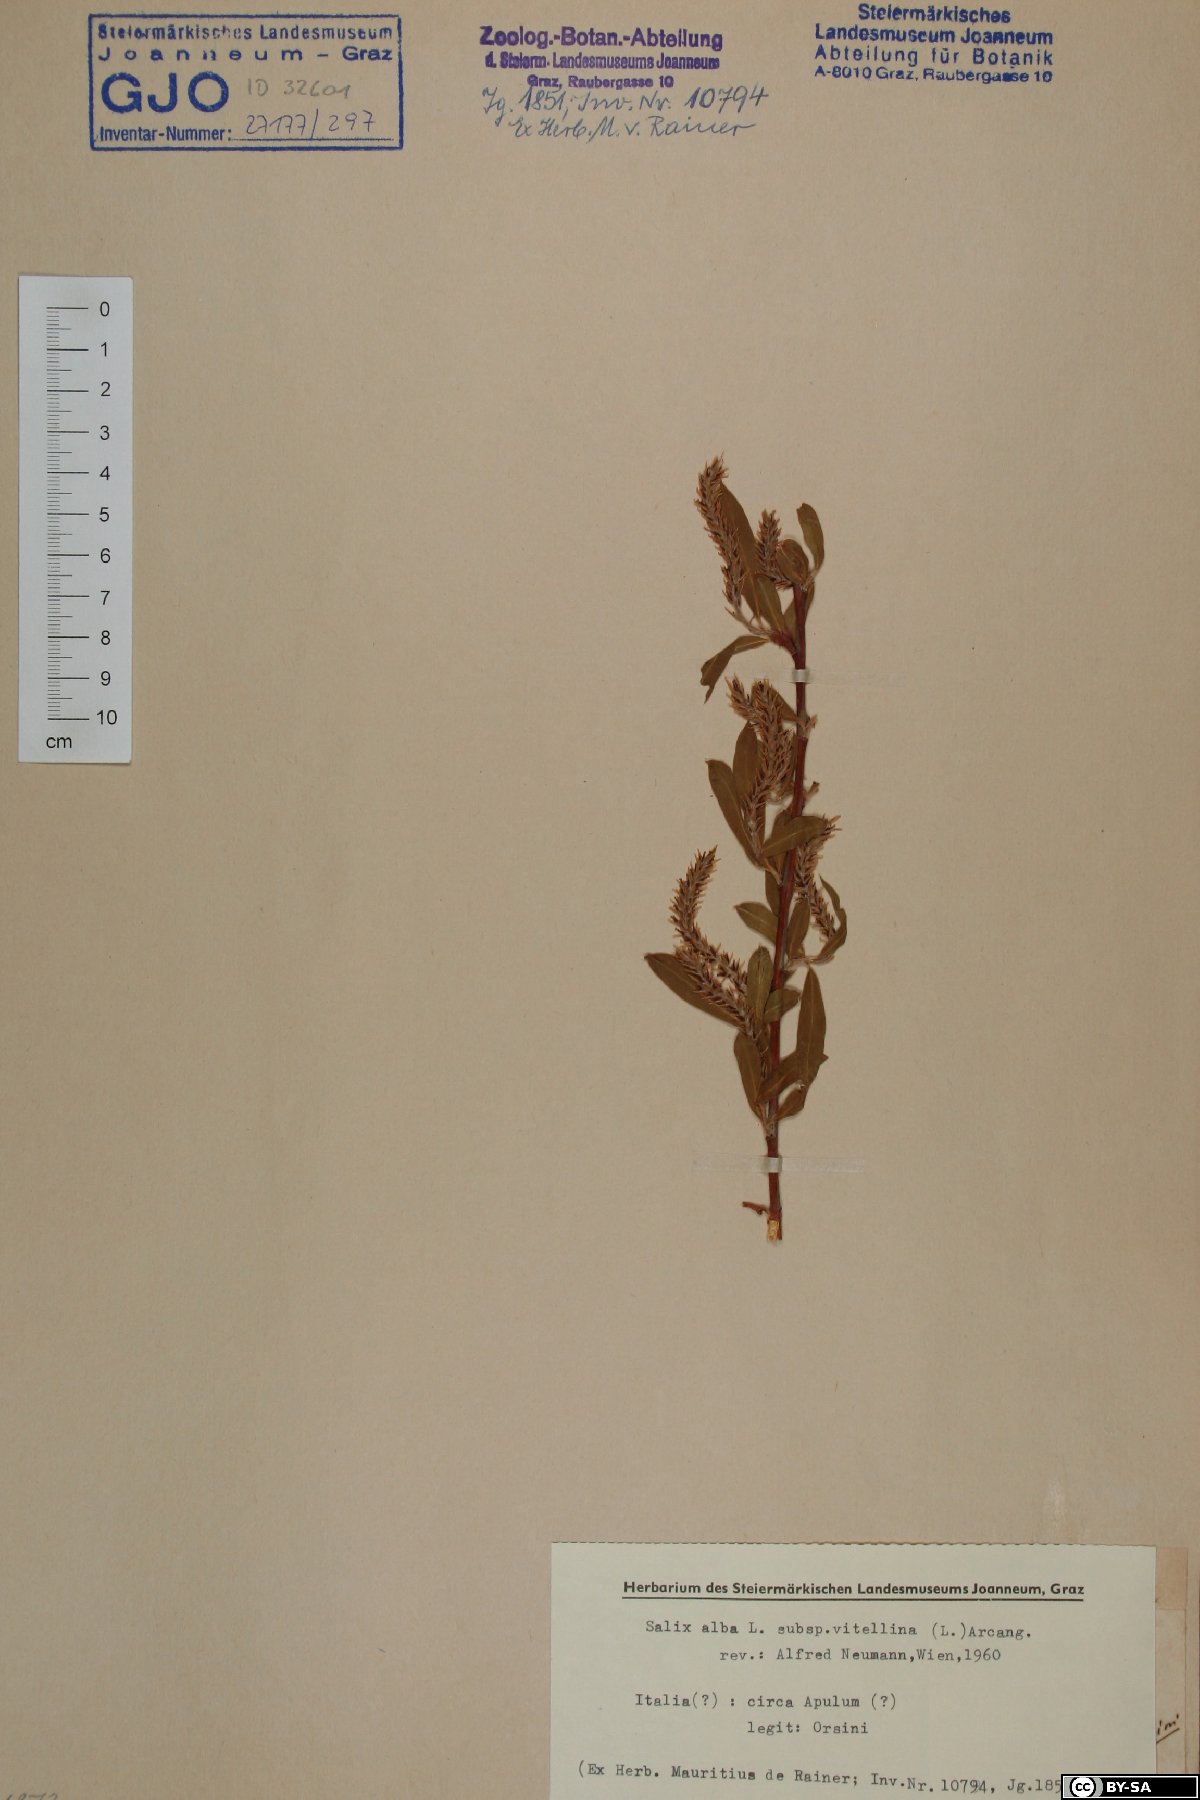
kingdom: Plantae
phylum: Tracheophyta
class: Magnoliopsida
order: Malpighiales
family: Salicaceae
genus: Salix
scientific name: Salix alba
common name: White willow
